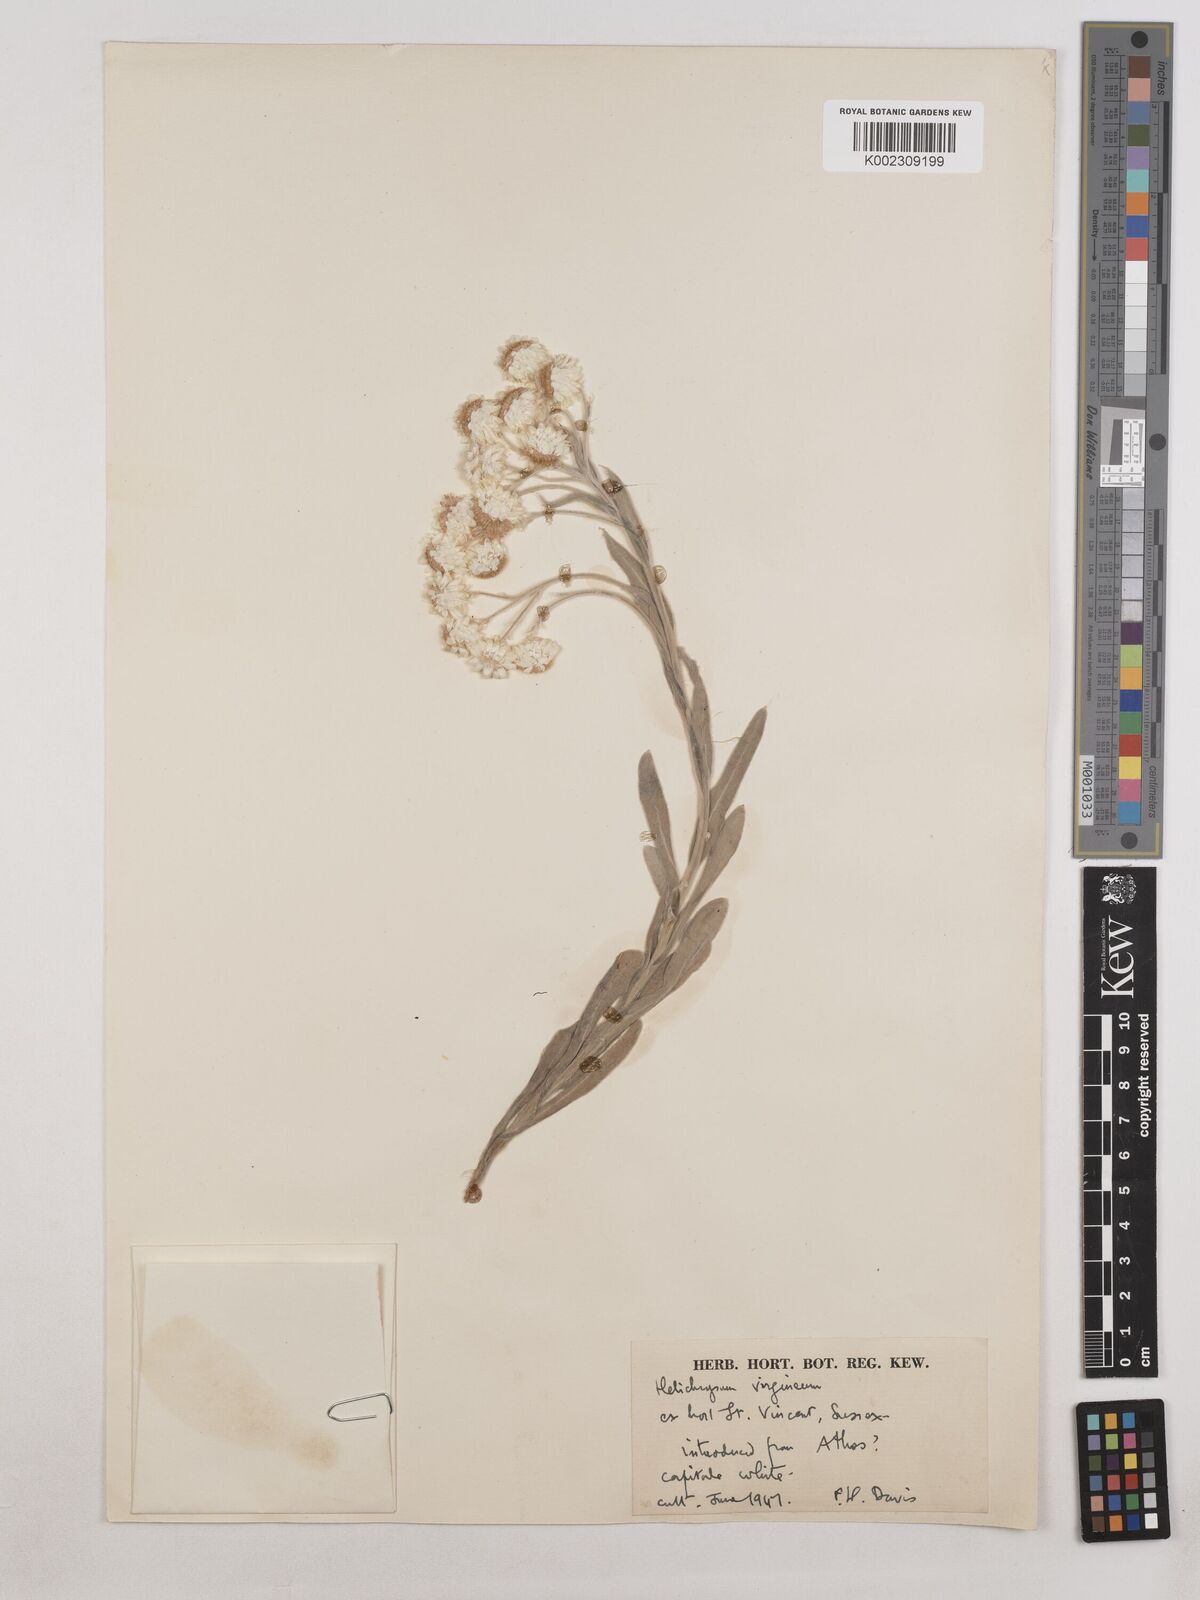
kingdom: Plantae
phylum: Tracheophyta
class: Magnoliopsida
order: Asterales
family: Asteraceae
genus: Helichrysum
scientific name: Helichrysum sibthorpii
